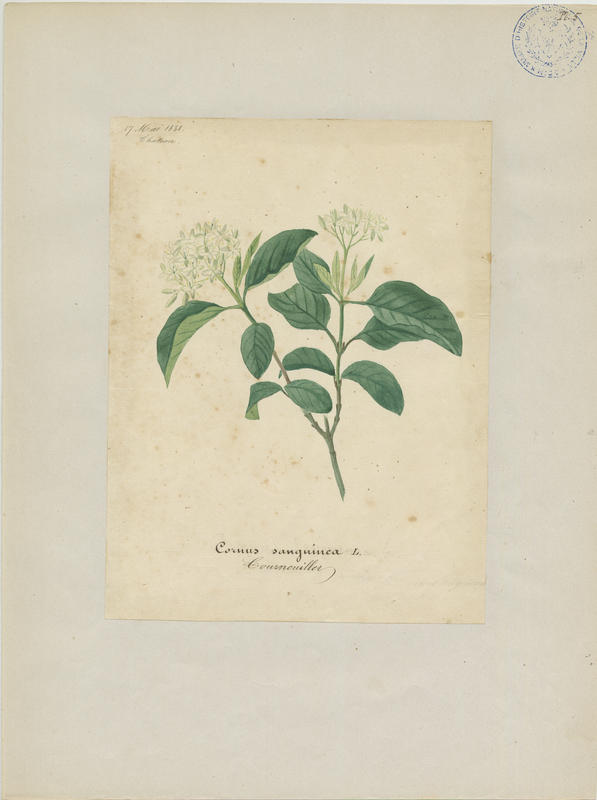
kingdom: Plantae
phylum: Tracheophyta
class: Magnoliopsida
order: Cornales
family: Cornaceae
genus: Cornus
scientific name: Cornus sanguinea
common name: Dogwood
